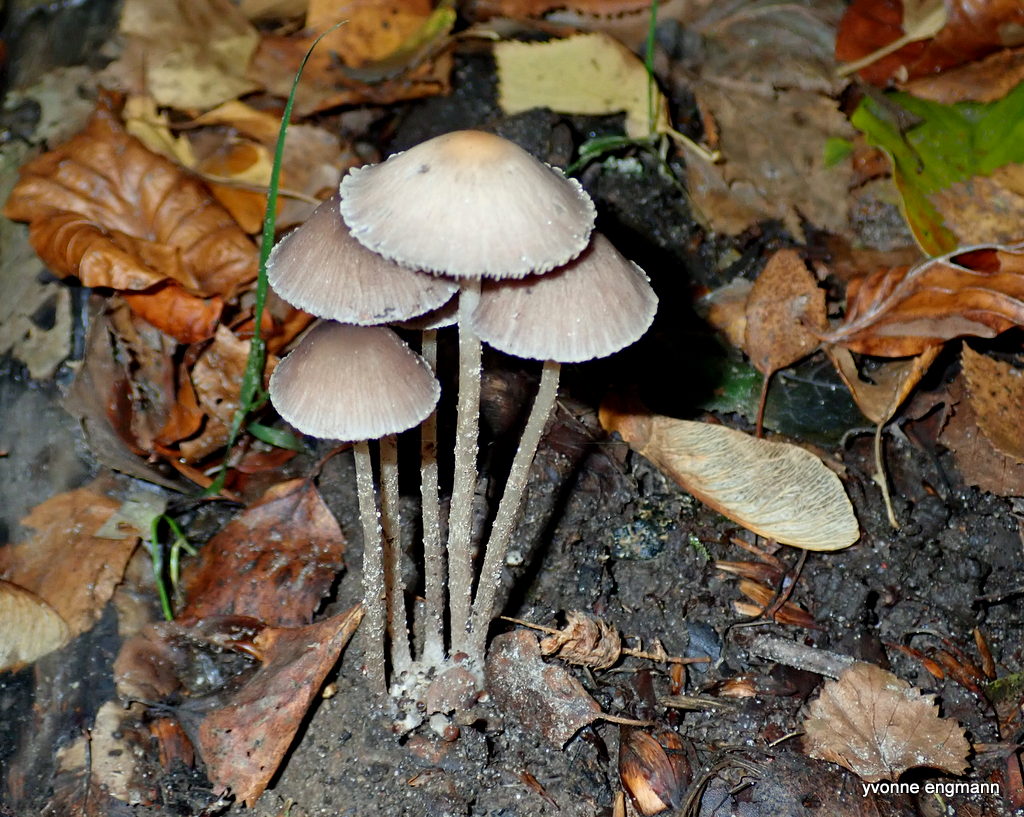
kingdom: Fungi
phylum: Basidiomycota
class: Agaricomycetes
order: Agaricales
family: Psathyrellaceae
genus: Psathyrella
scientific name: Psathyrella
